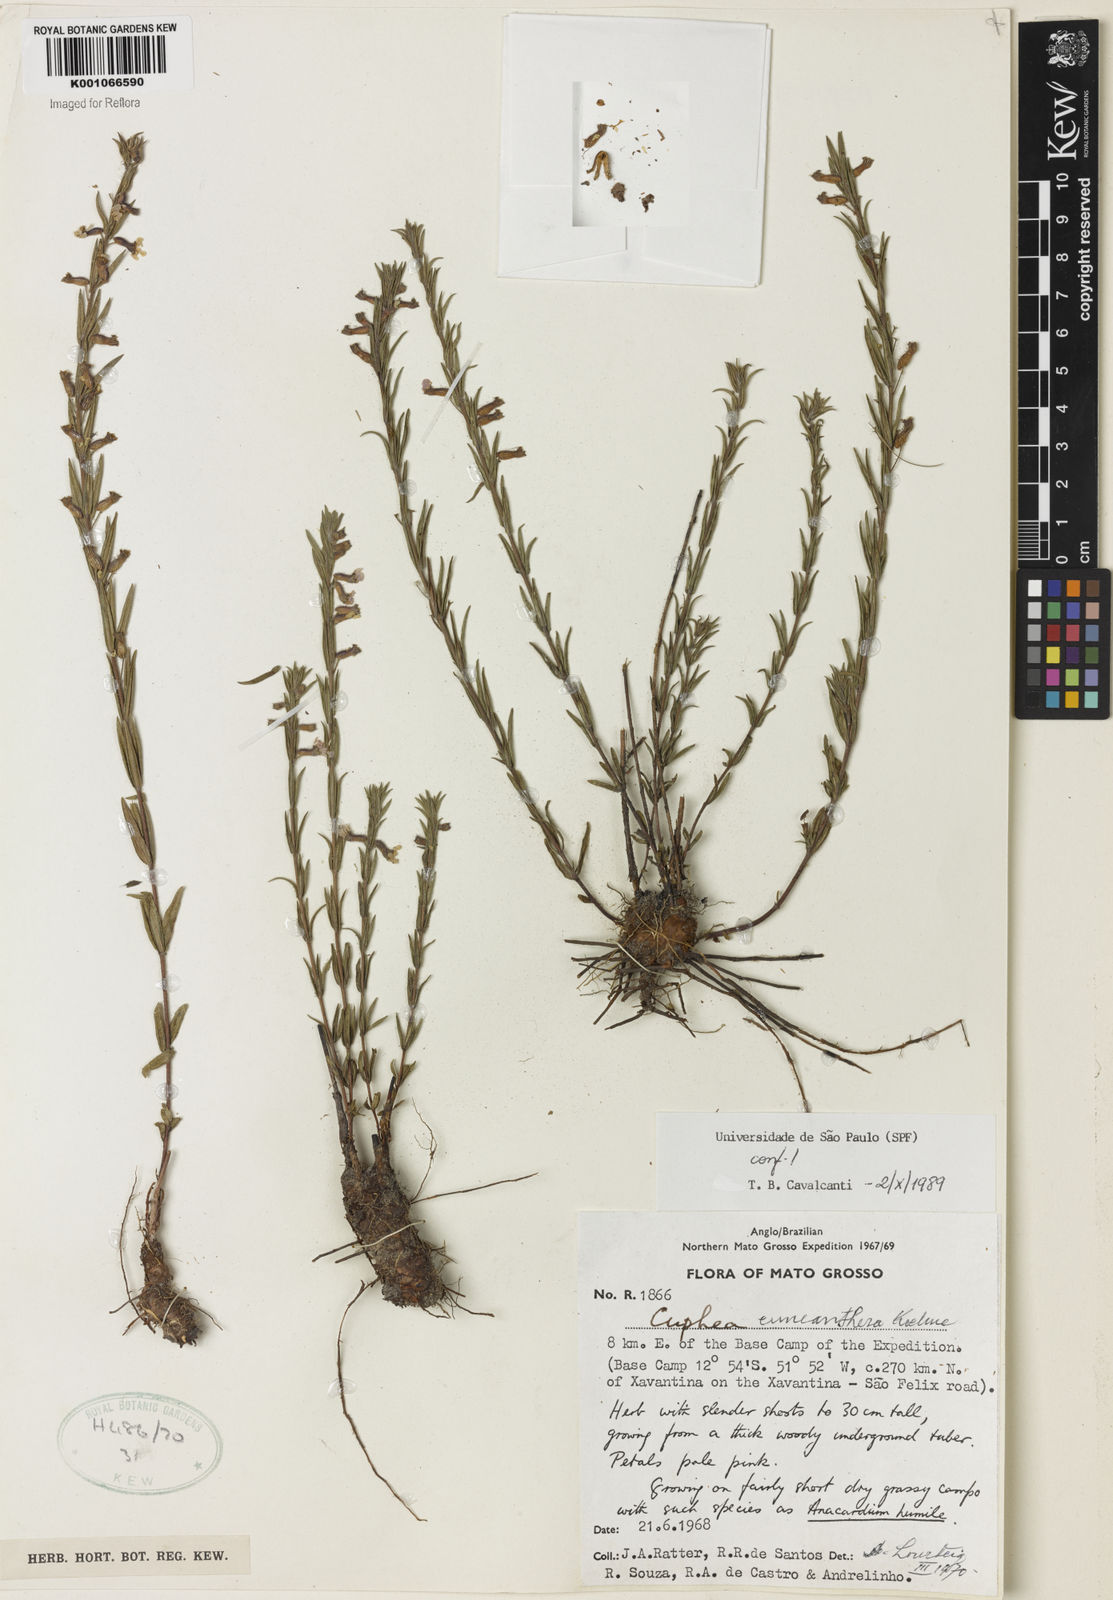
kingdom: Plantae
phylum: Tracheophyta
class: Magnoliopsida
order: Myrtales
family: Lythraceae
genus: Cuphea
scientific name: Cuphea retrorsicapilla
